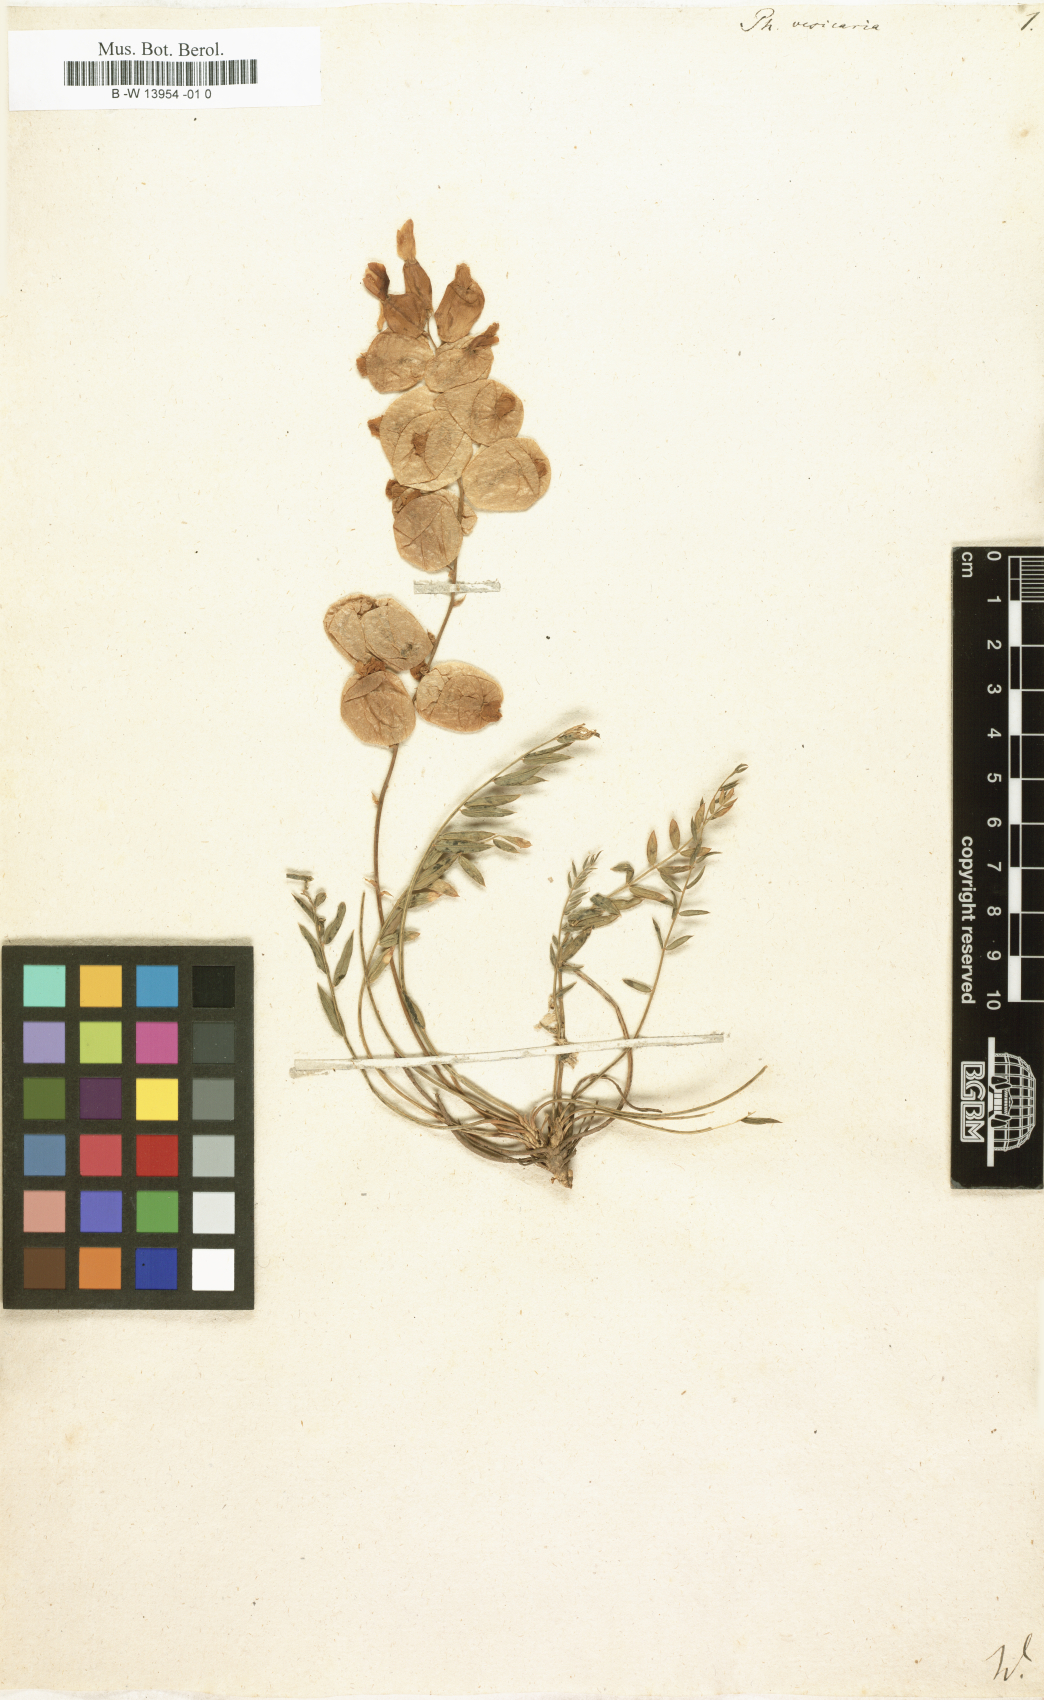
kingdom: Plantae
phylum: Tracheophyta
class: Magnoliopsida
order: Fabales
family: Fabaceae
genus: Astragalus
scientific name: Astragalus halicacabus
